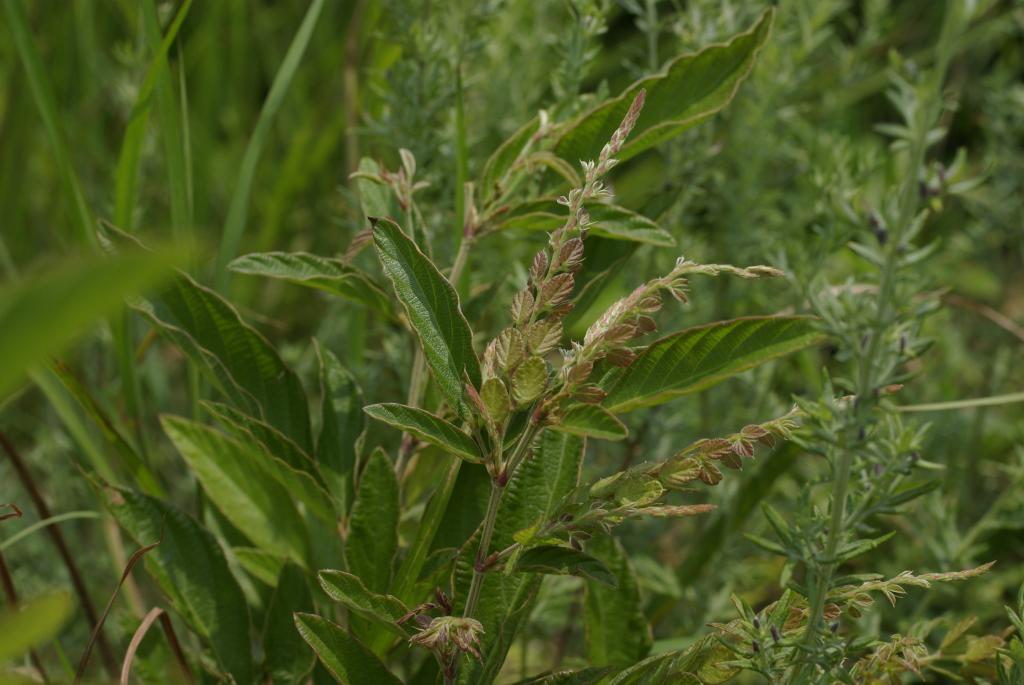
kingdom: Plantae
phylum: Tracheophyta
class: Magnoliopsida
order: Fabales
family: Fabaceae
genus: Phyllodium
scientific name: Phyllodium pulchellum
